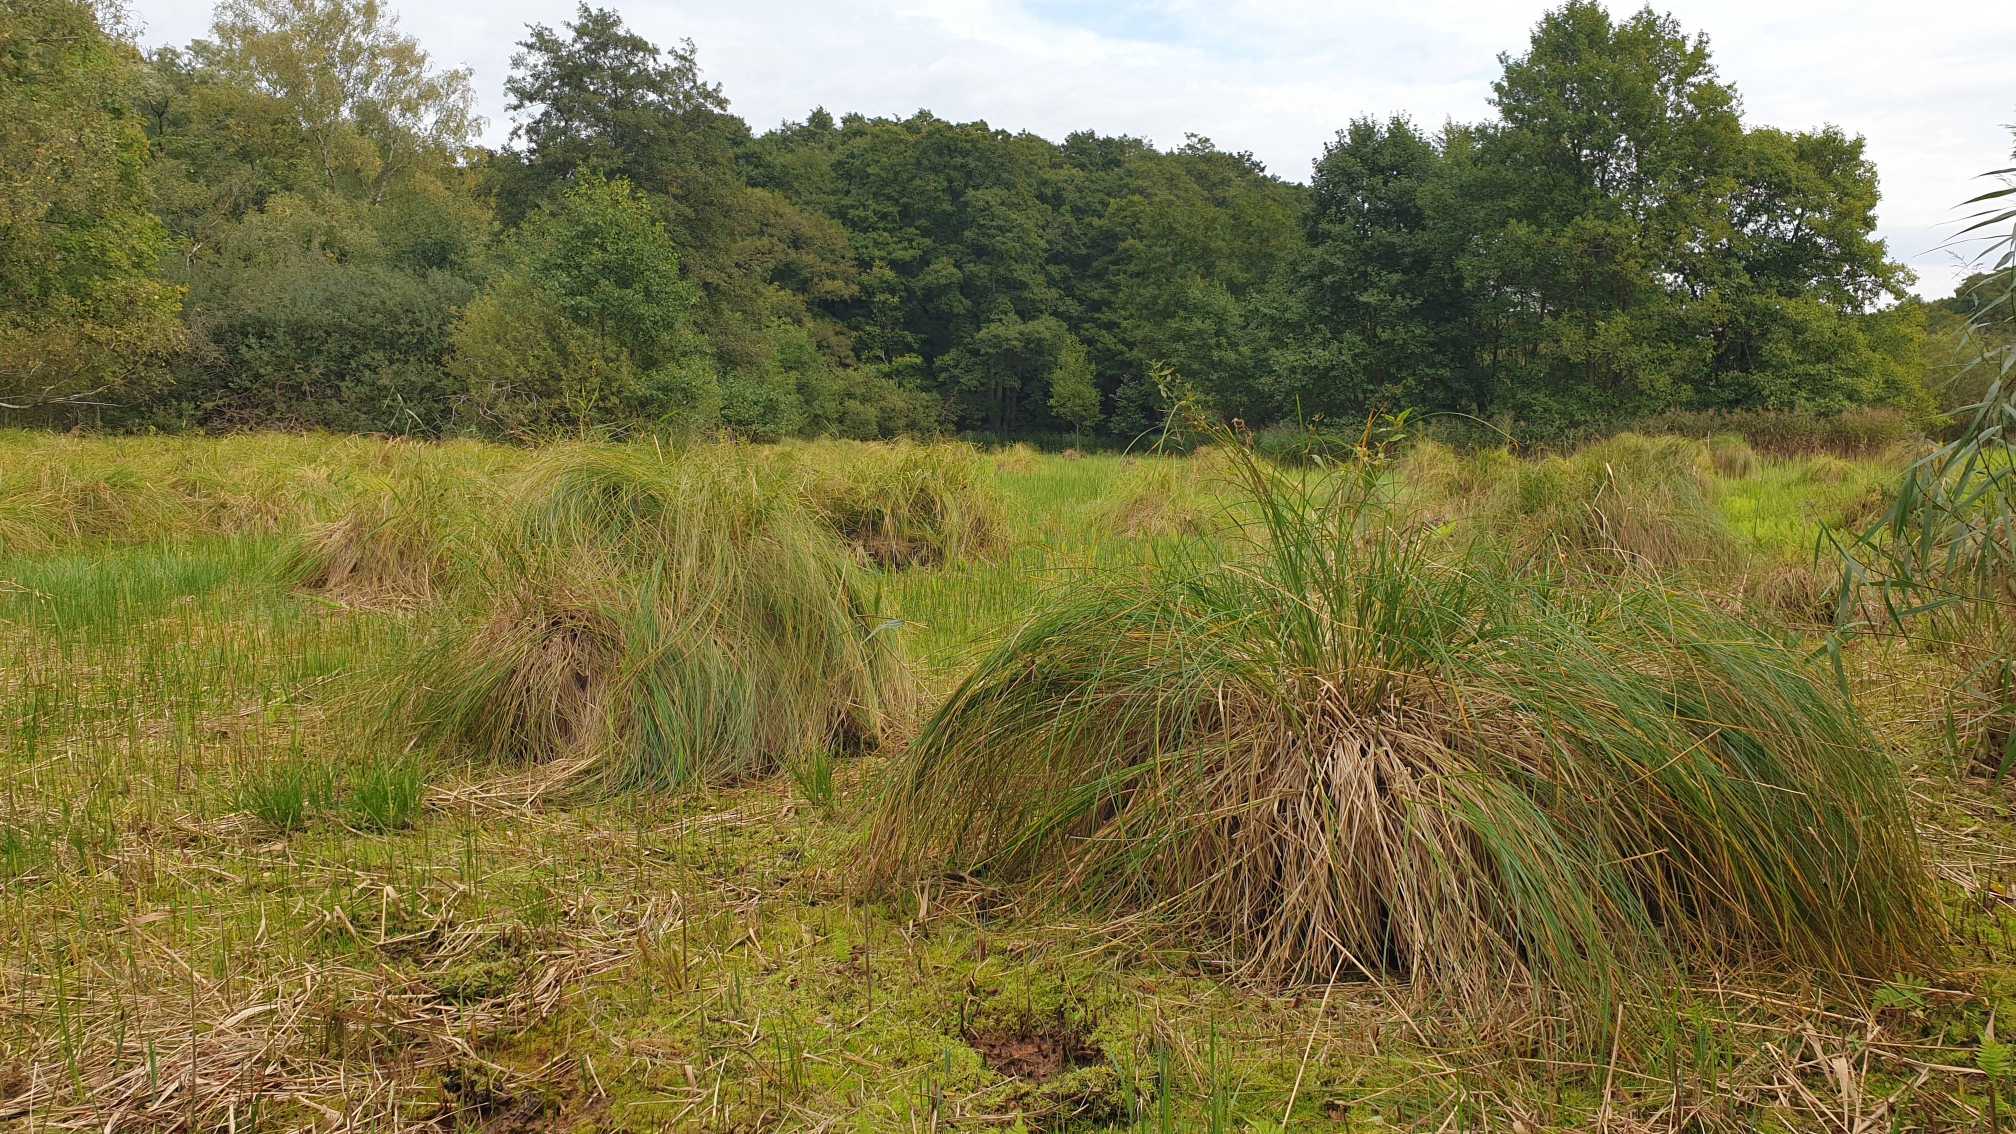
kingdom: Plantae
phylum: Tracheophyta
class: Liliopsida
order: Poales
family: Cyperaceae
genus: Carex
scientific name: Carex paniculata
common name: Top-star
